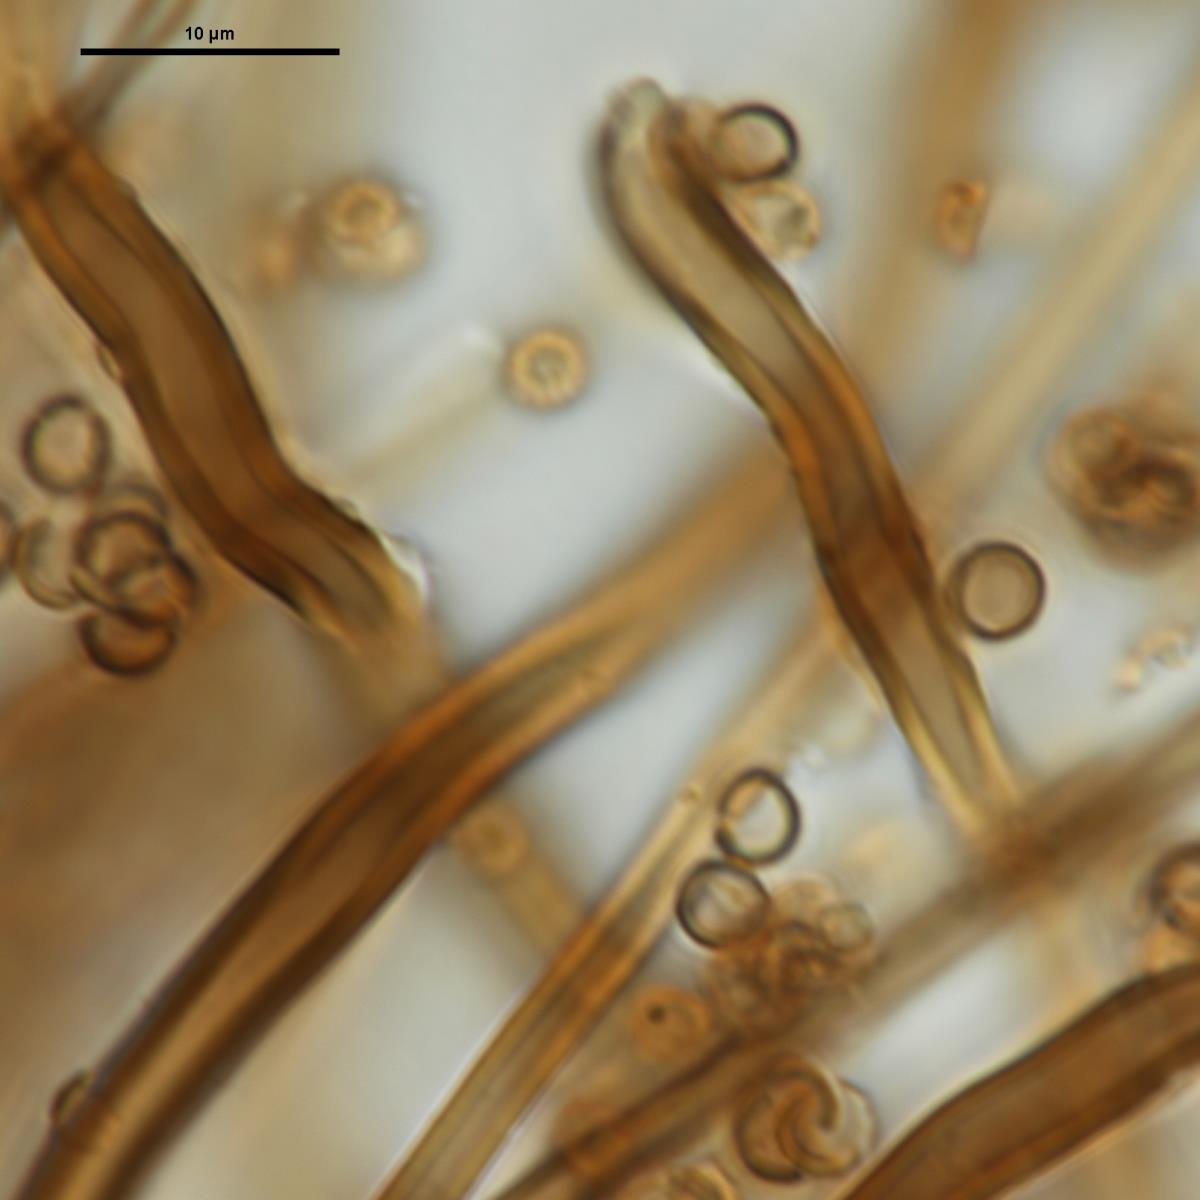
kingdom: Fungi
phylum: Basidiomycota
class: Agaricomycetes
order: Agaricales
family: Lycoperdaceae
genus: Lycoperdon
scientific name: Lycoperdon lividum
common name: Grassland puffball
